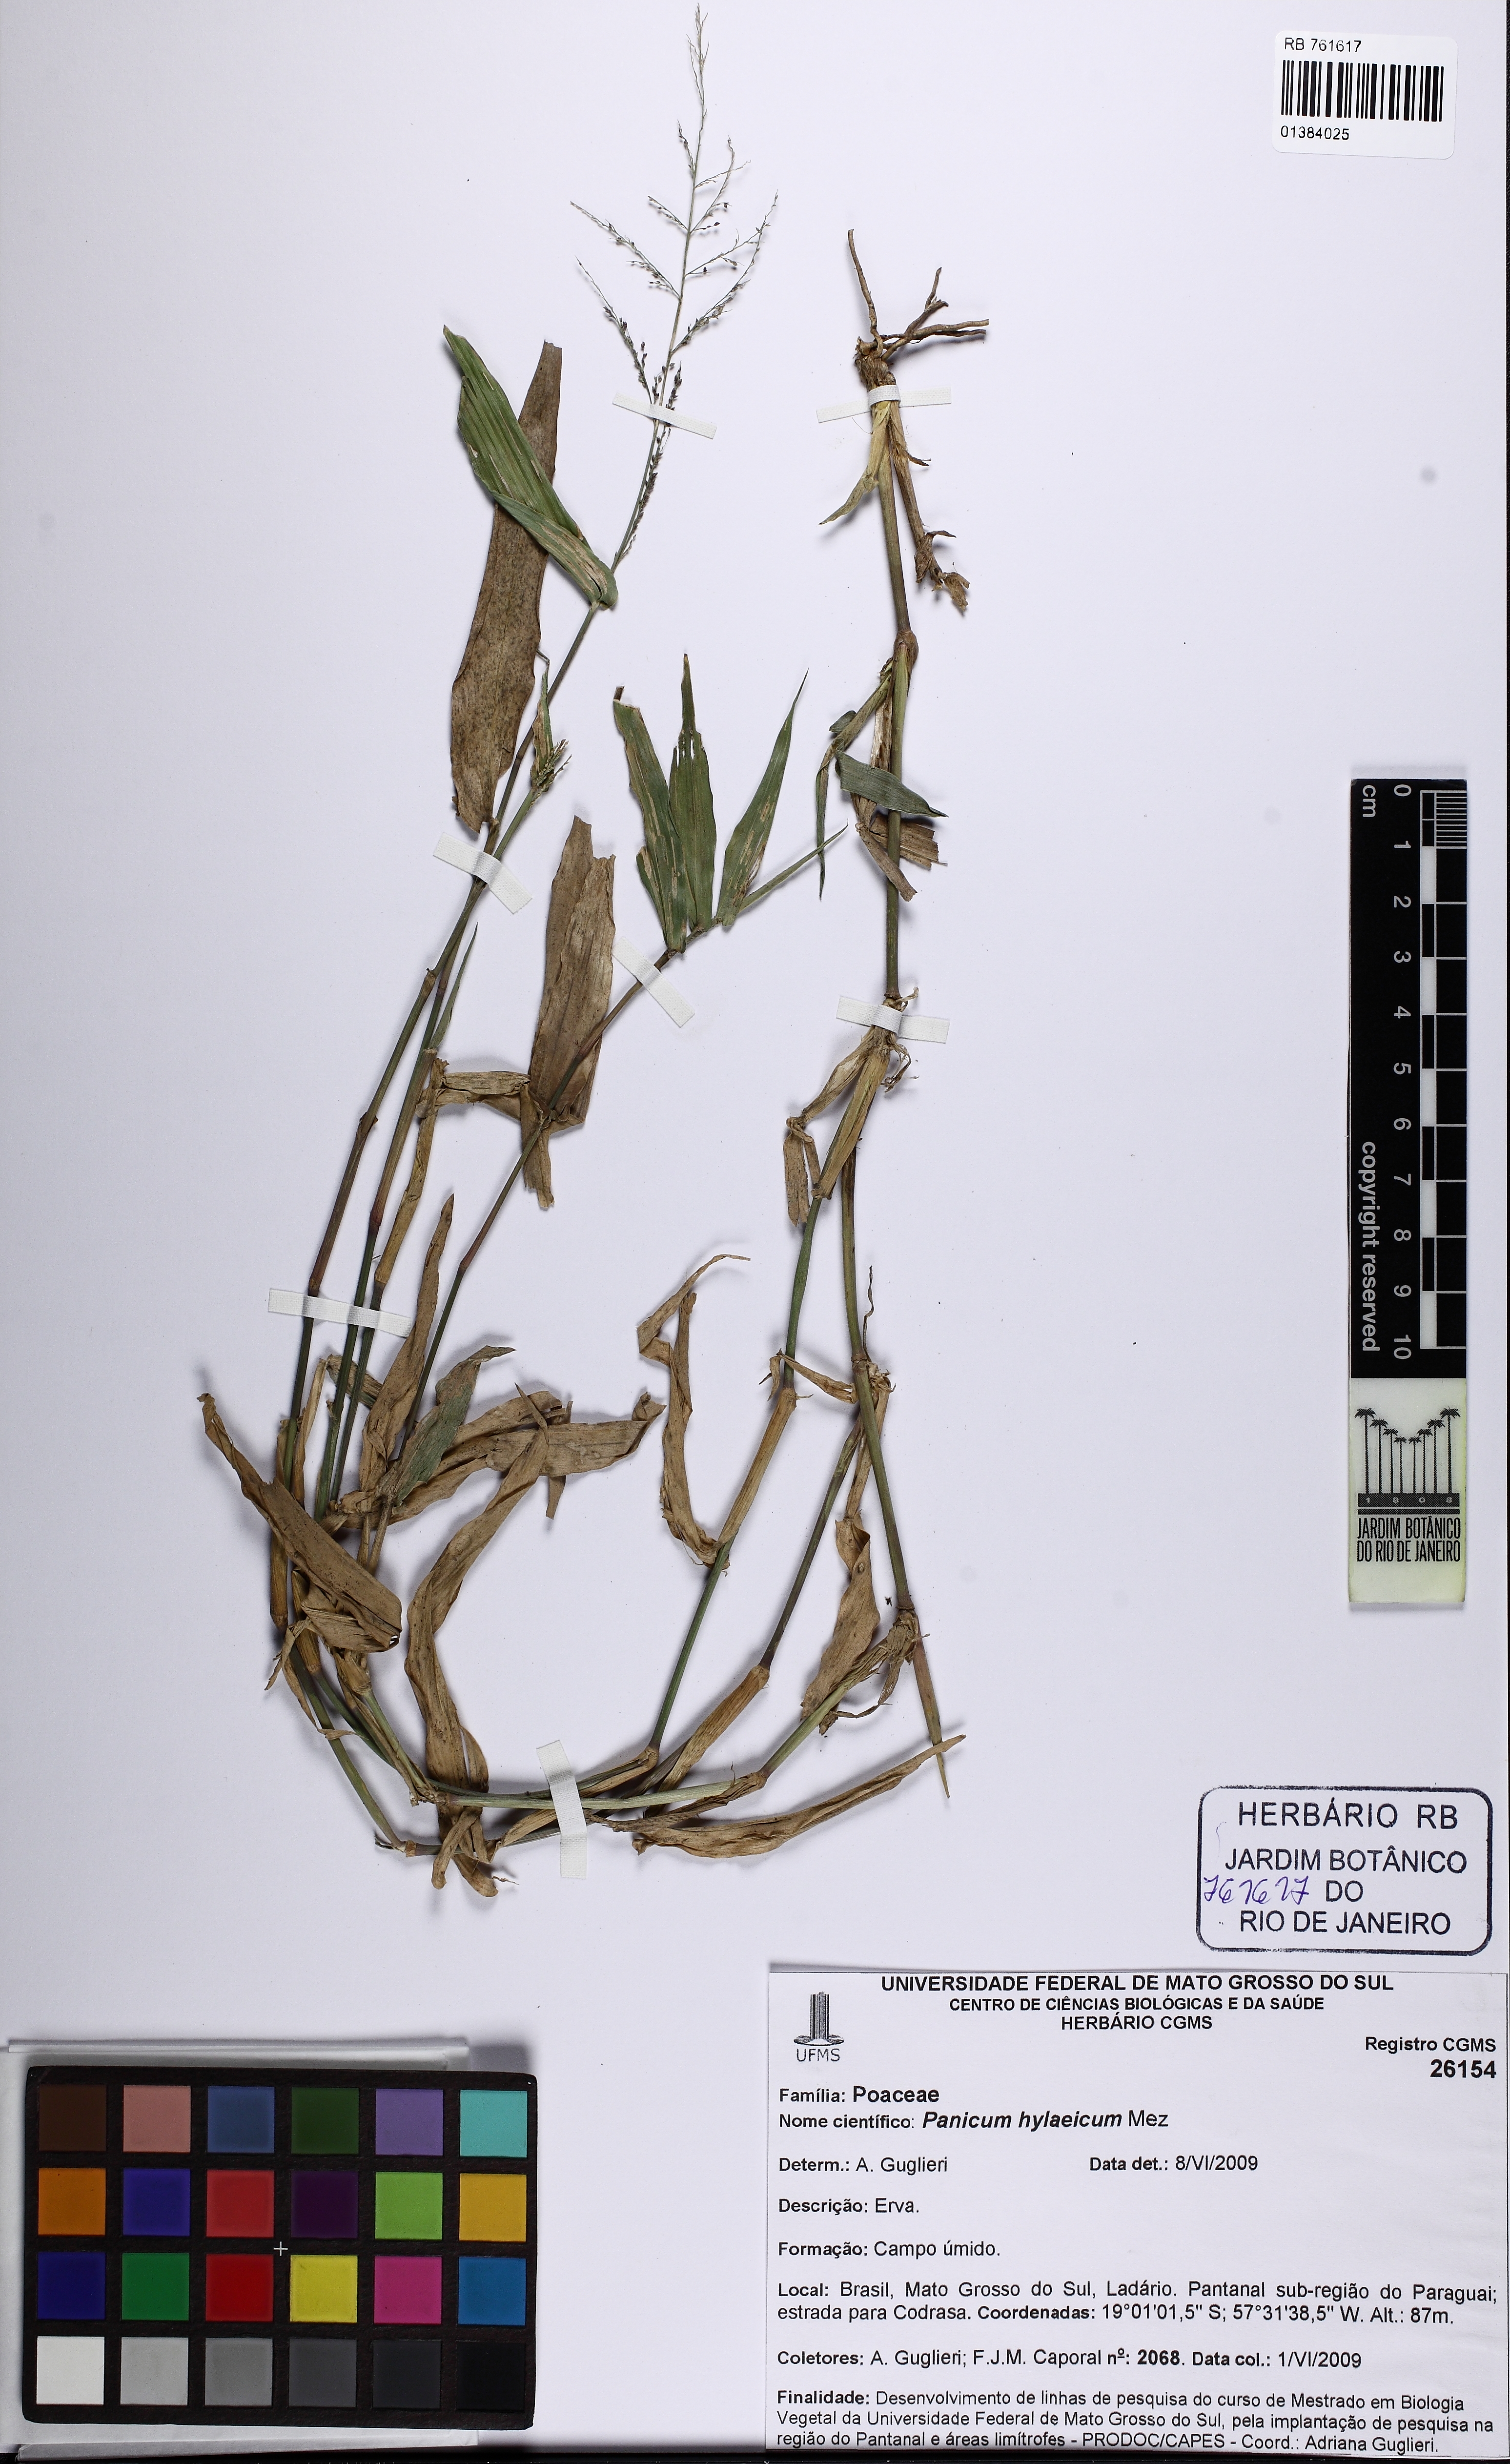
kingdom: Plantae
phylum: Tracheophyta
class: Liliopsida
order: Poales
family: Poaceae
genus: Rugoloa
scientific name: Rugoloa hylaeica
